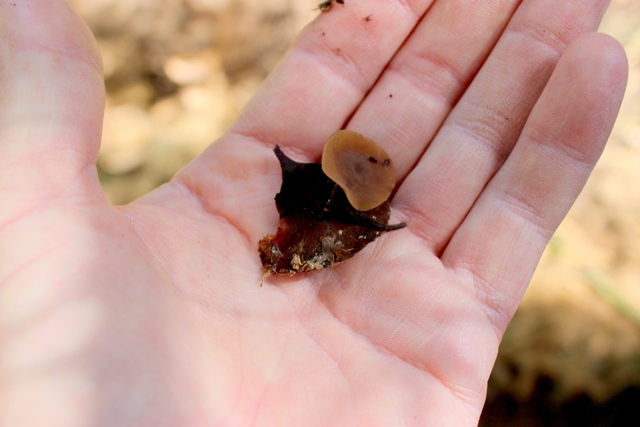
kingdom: Fungi
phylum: Ascomycota
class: Leotiomycetes
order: Helotiales
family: Sclerotiniaceae
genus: Ciboria
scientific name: Ciboria rufofusca
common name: kogleskæl-knoldskive
